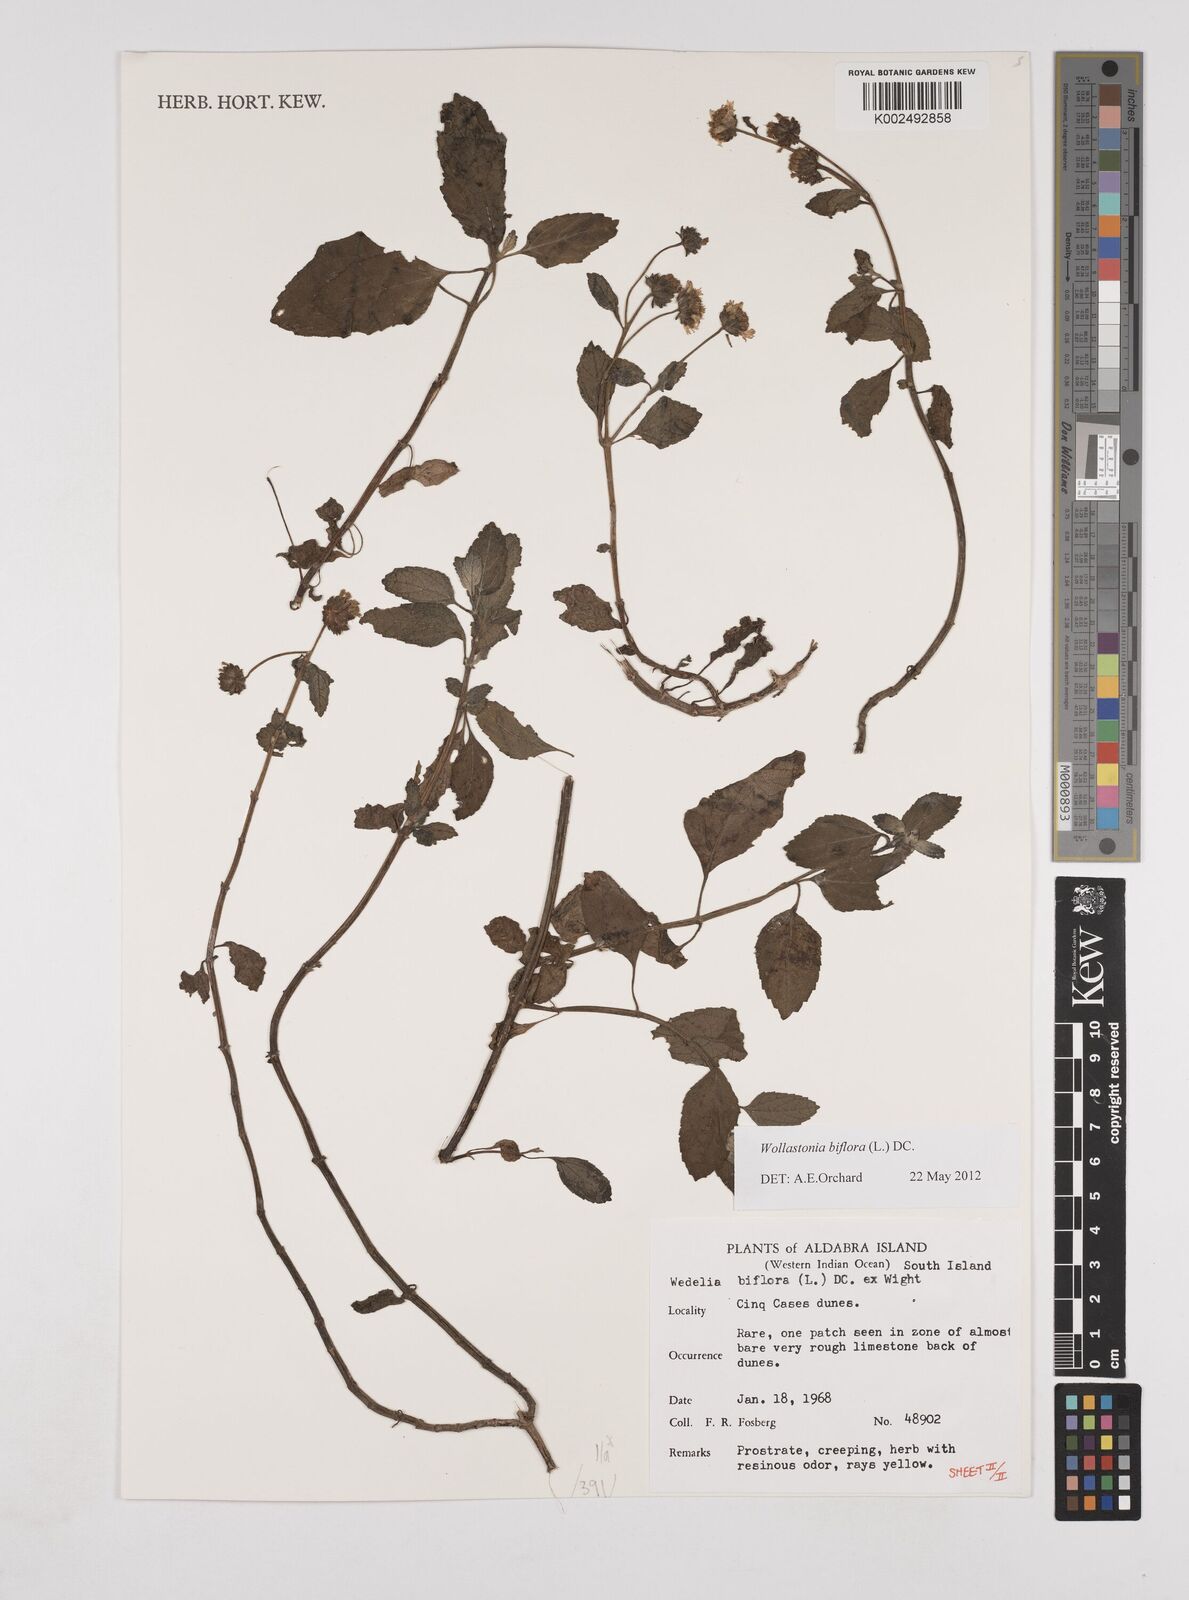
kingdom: Plantae
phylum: Tracheophyta
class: Magnoliopsida
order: Asterales
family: Asteraceae
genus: Wollastonia
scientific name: Wollastonia biflora
